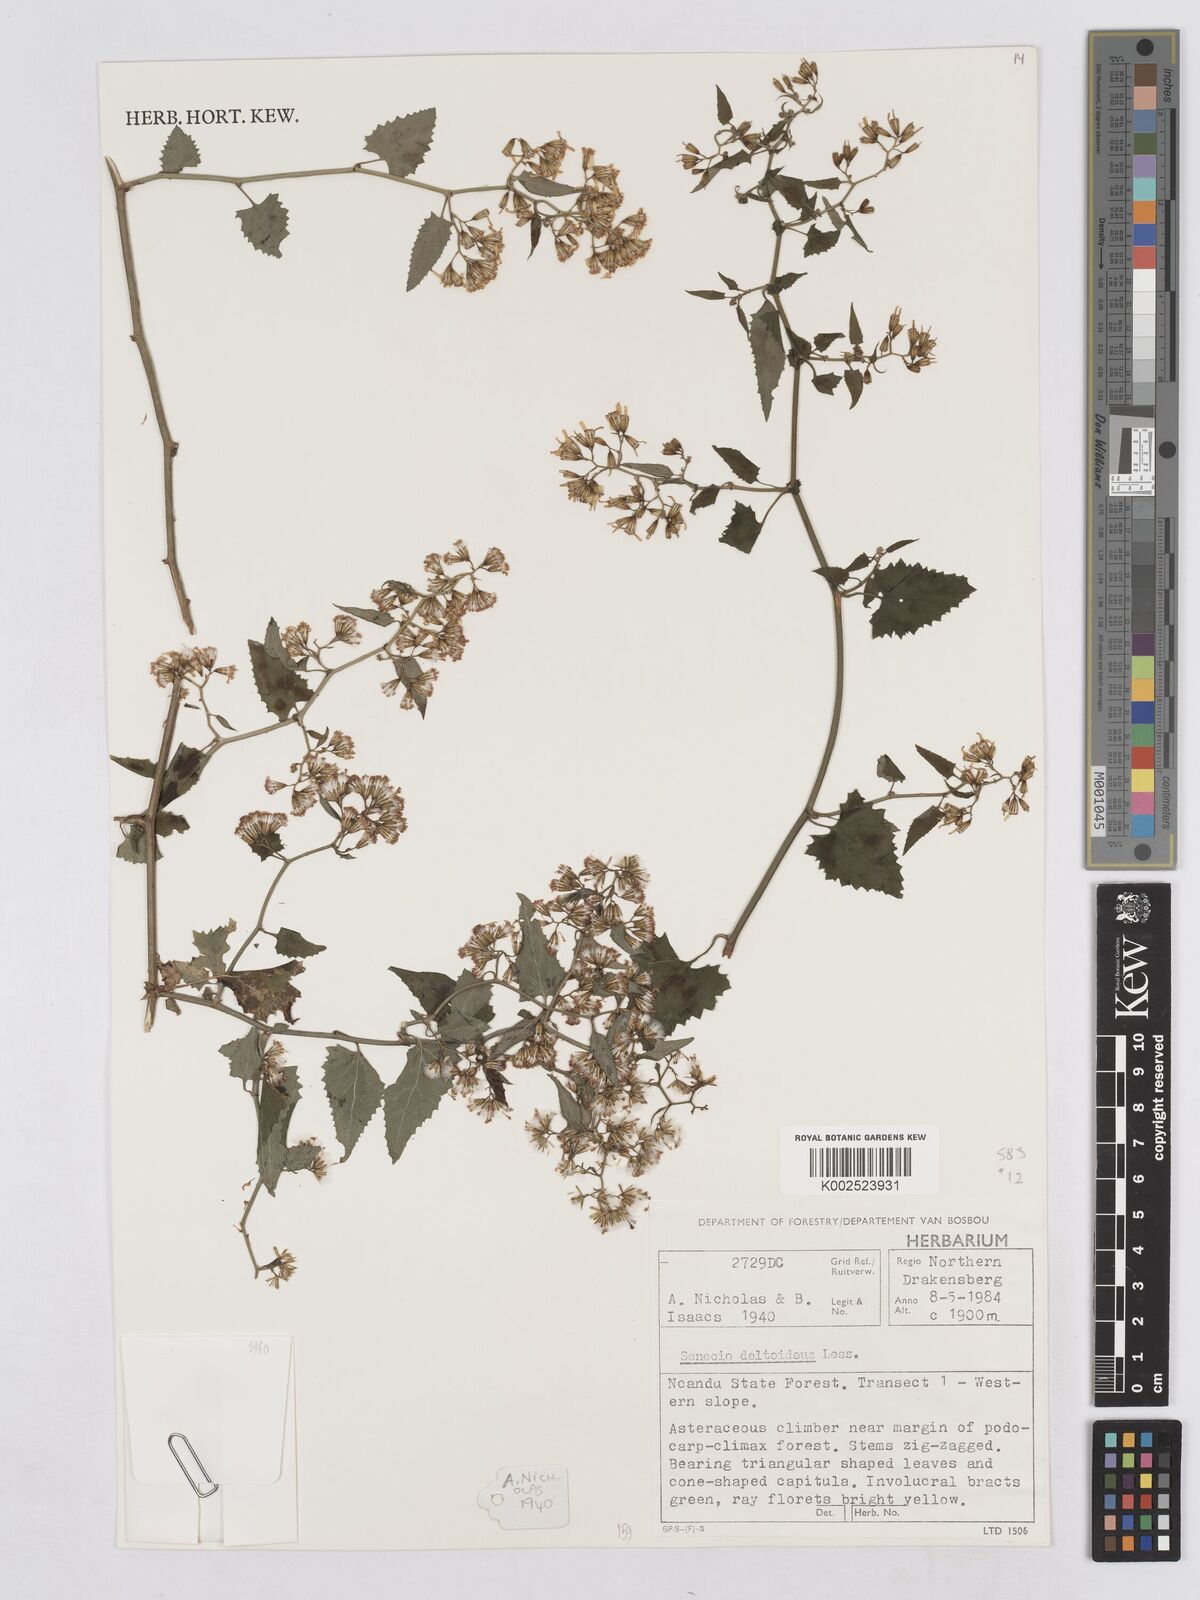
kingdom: Plantae
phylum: Tracheophyta
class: Magnoliopsida
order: Asterales
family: Asteraceae
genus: Senecio
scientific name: Senecio deltoideus
